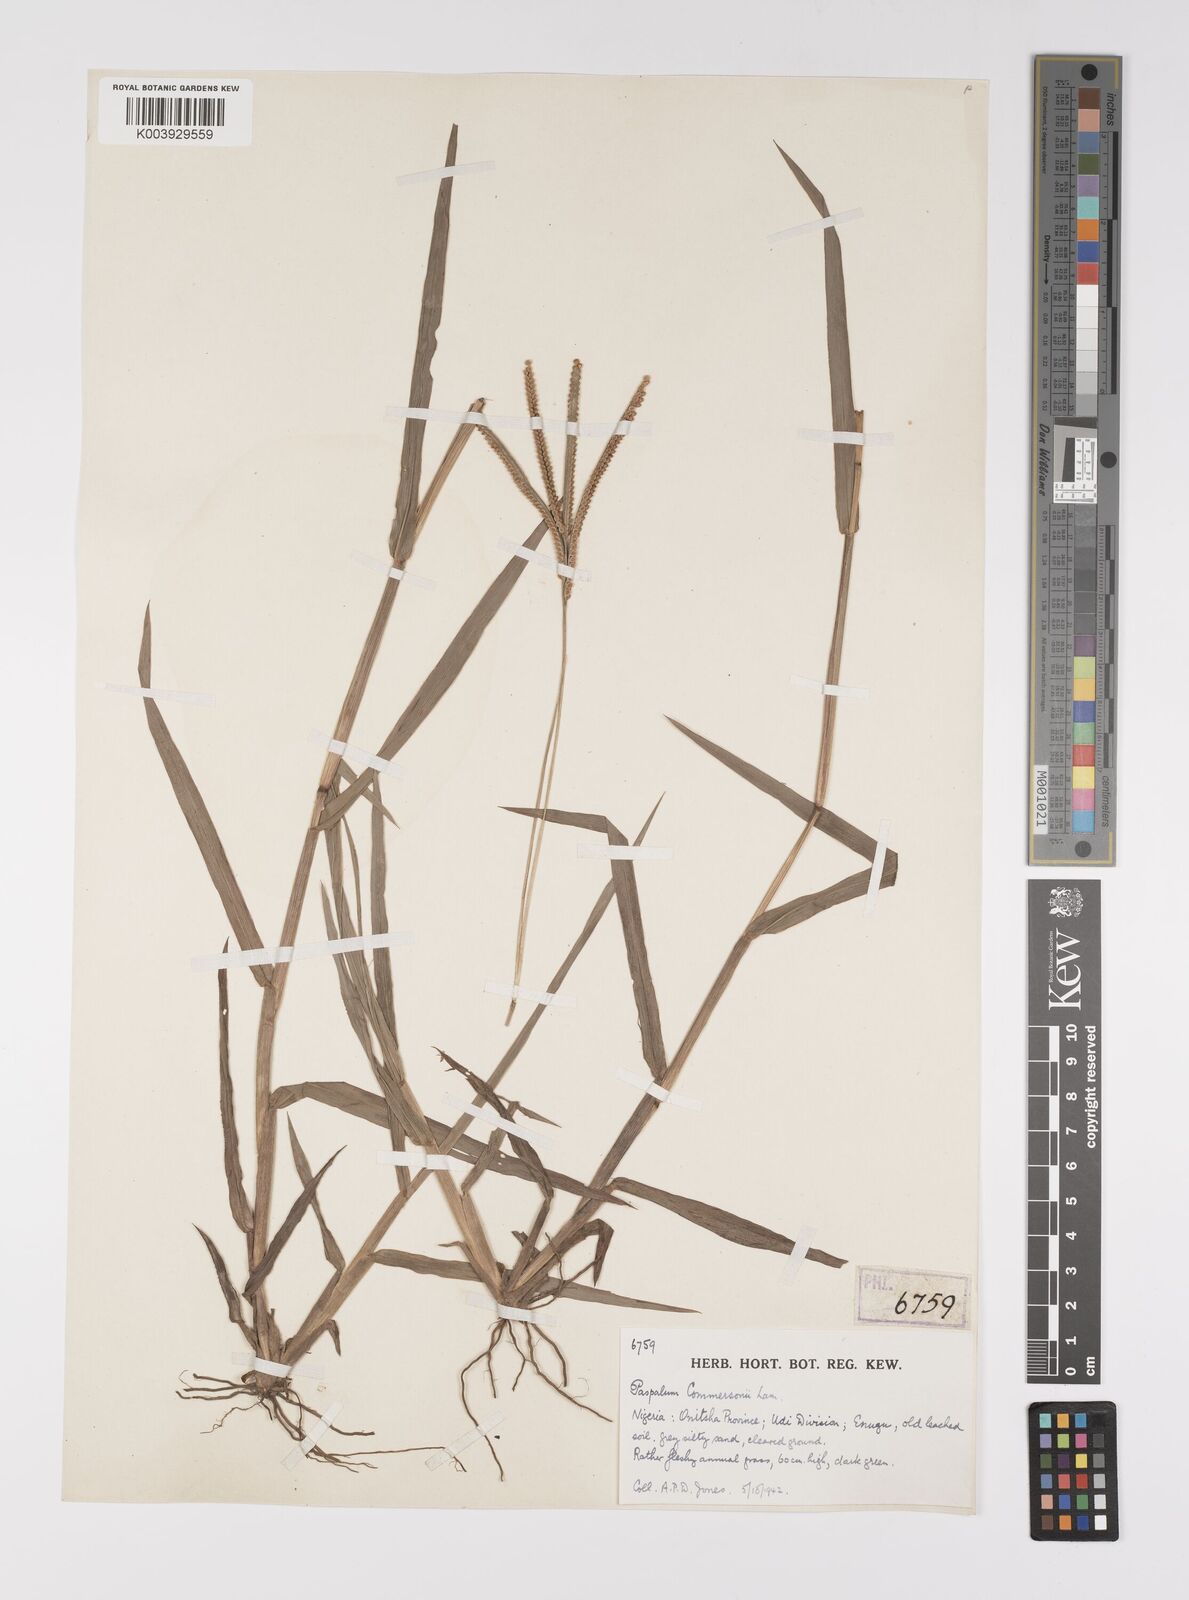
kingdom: Plantae
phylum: Tracheophyta
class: Liliopsida
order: Poales
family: Poaceae
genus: Paspalum
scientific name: Paspalum scrobiculatum
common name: Kodo millet
